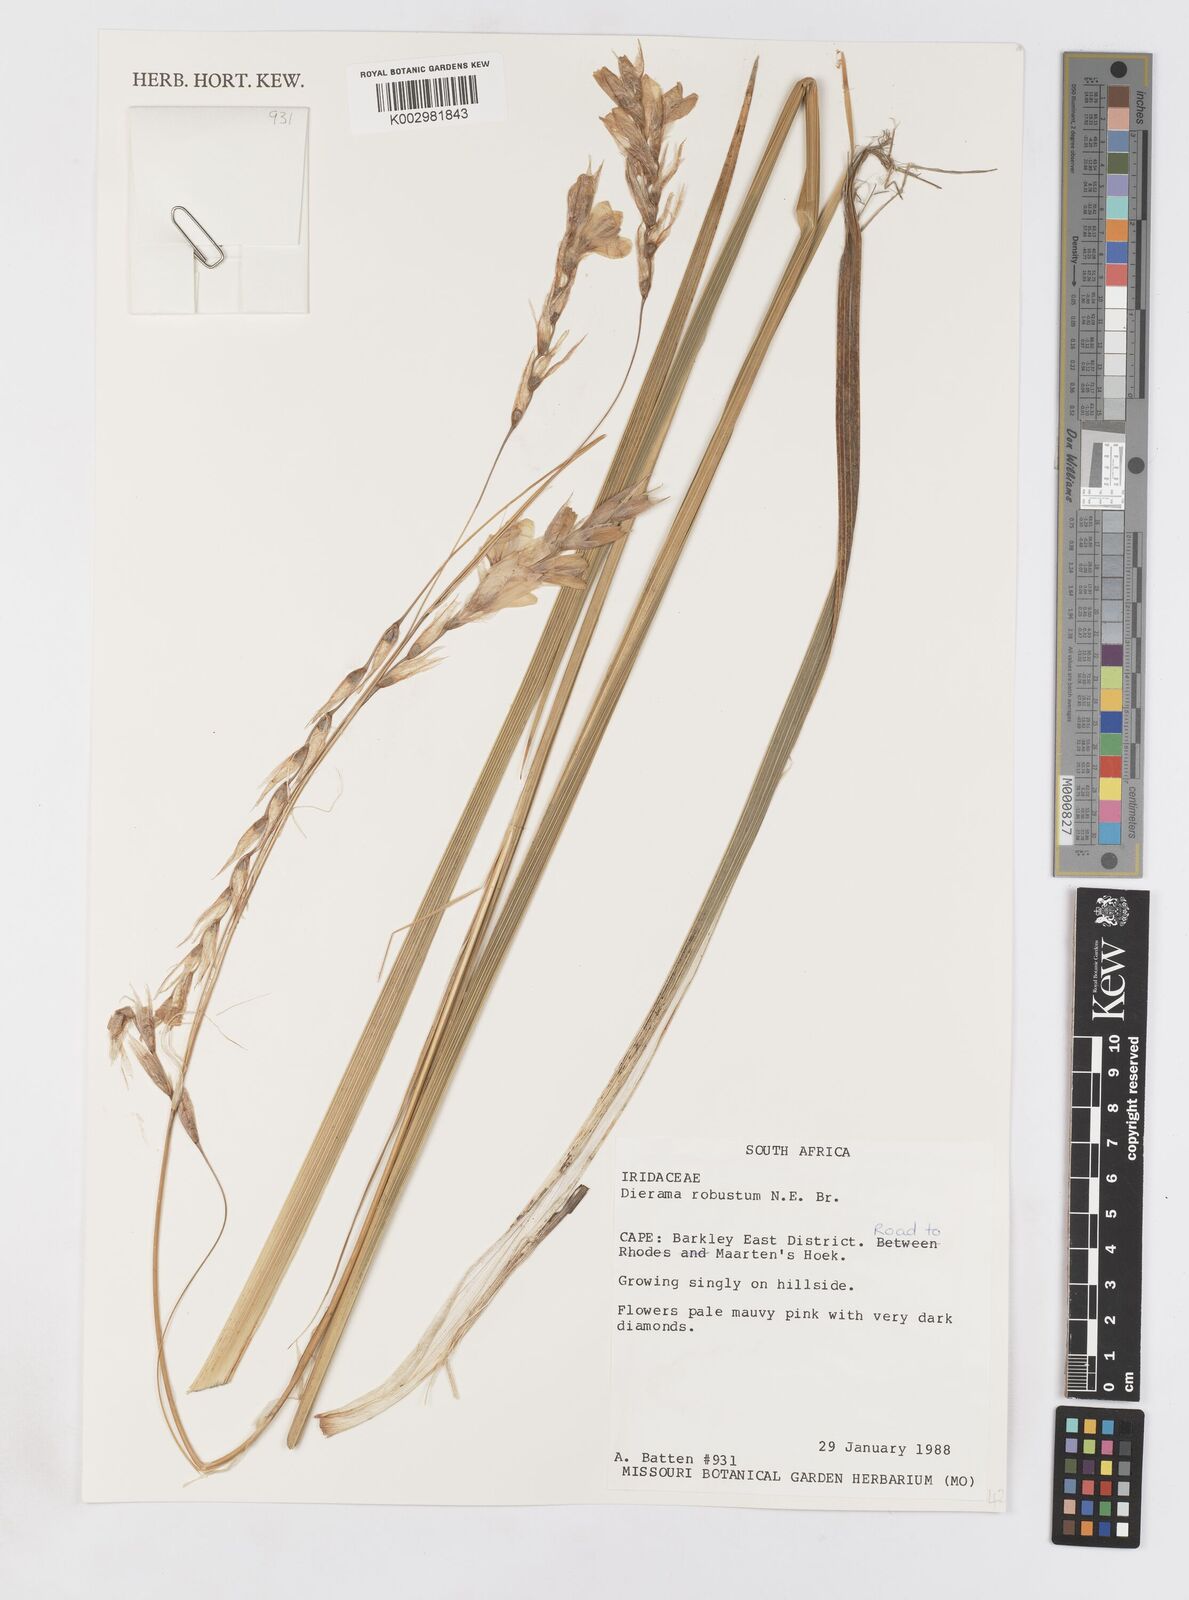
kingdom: Plantae
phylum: Tracheophyta
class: Liliopsida
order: Asparagales
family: Iridaceae
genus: Dierama
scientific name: Dierama robustum
